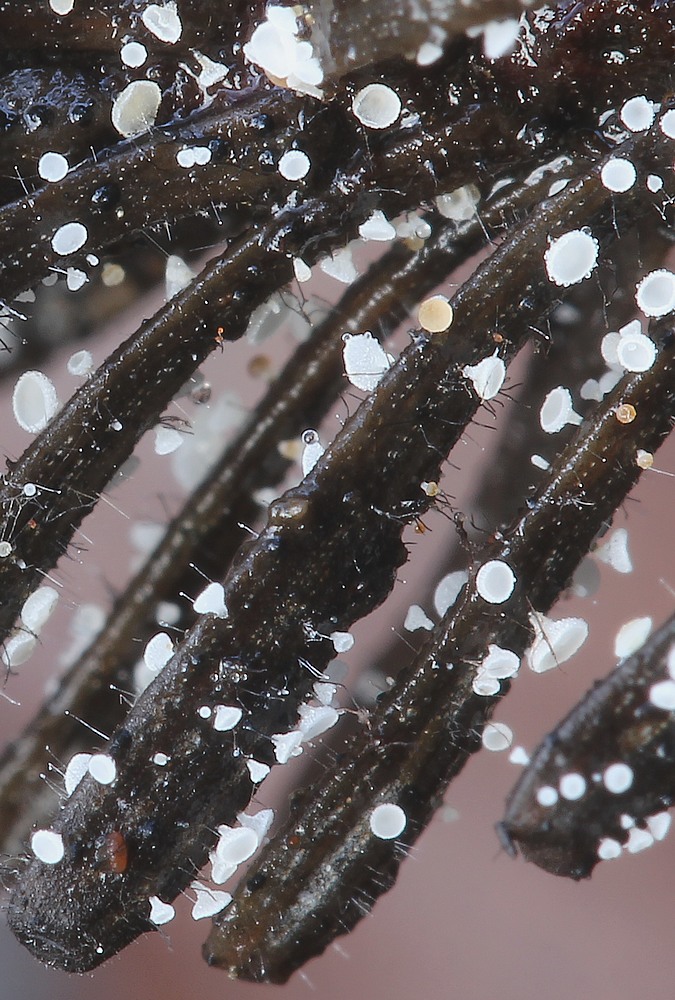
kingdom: Fungi
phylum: Ascomycota
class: Leotiomycetes
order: Helotiales
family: Hyaloscyphaceae
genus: Cistella
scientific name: Cistella acuum
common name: nåle-sirskive
